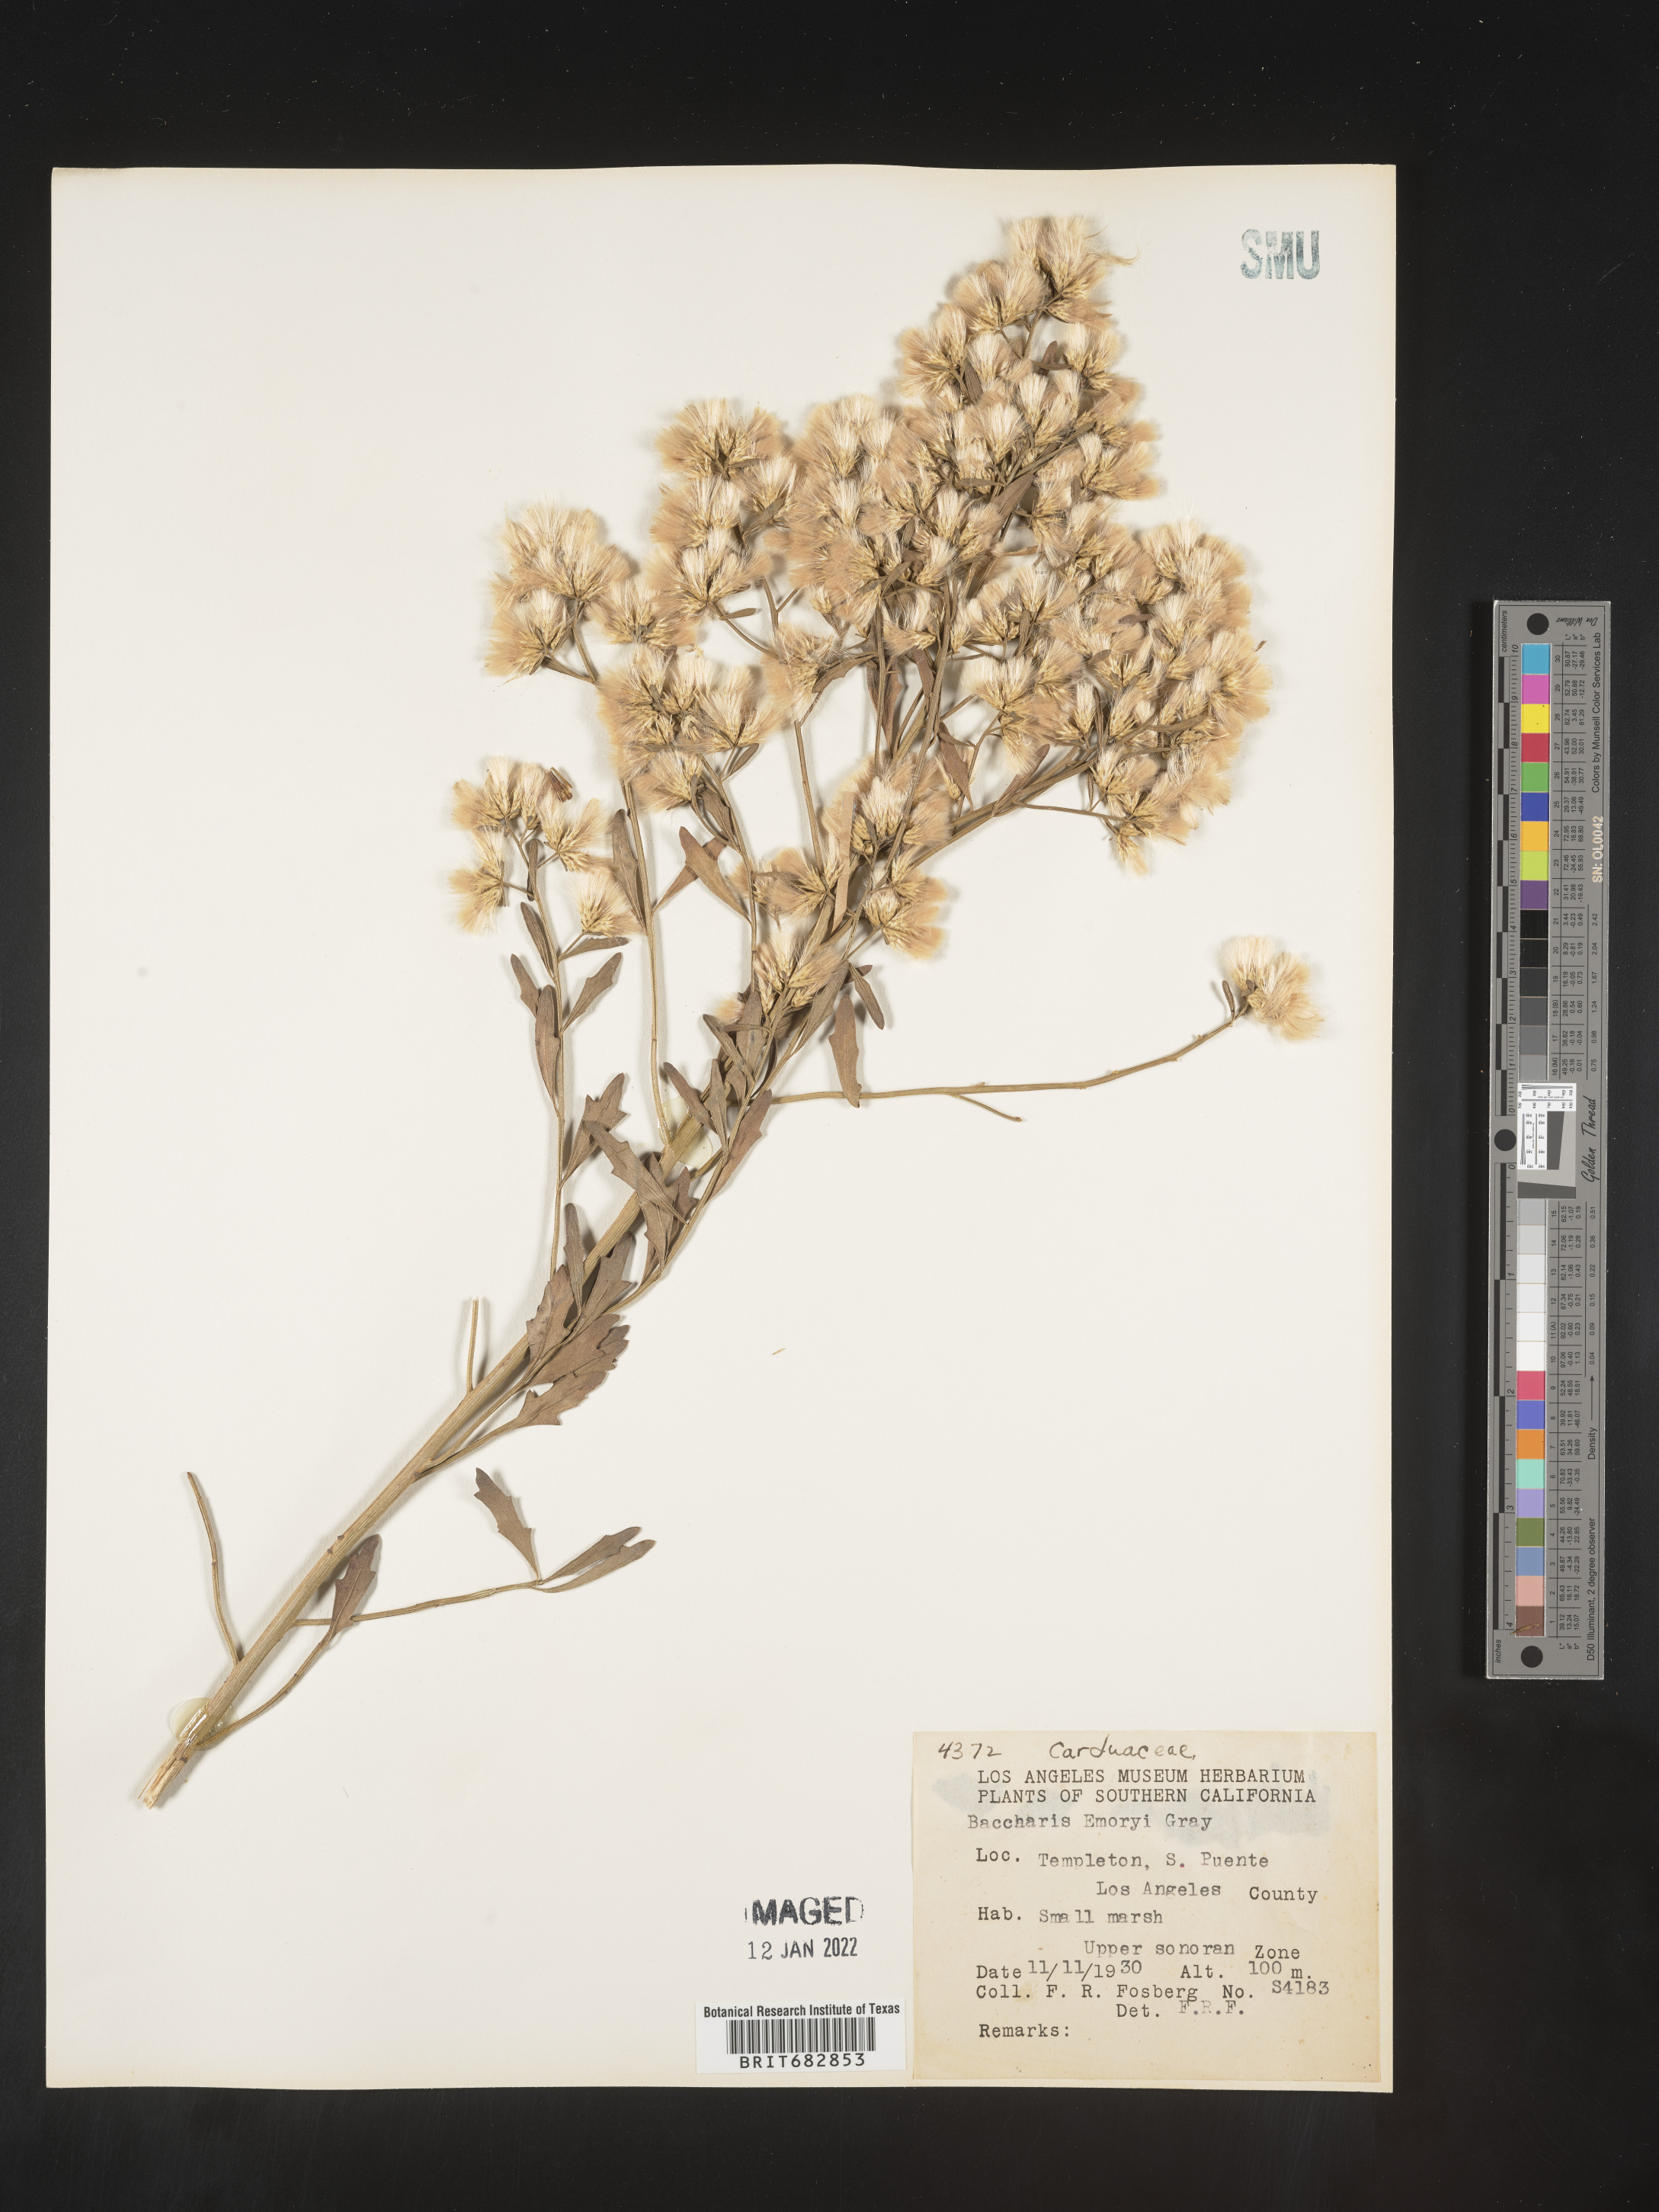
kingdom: Plantae
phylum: Tracheophyta
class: Magnoliopsida
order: Asterales
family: Asteraceae
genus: Baccharis
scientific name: Baccharis salicina
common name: Willow baccharis
